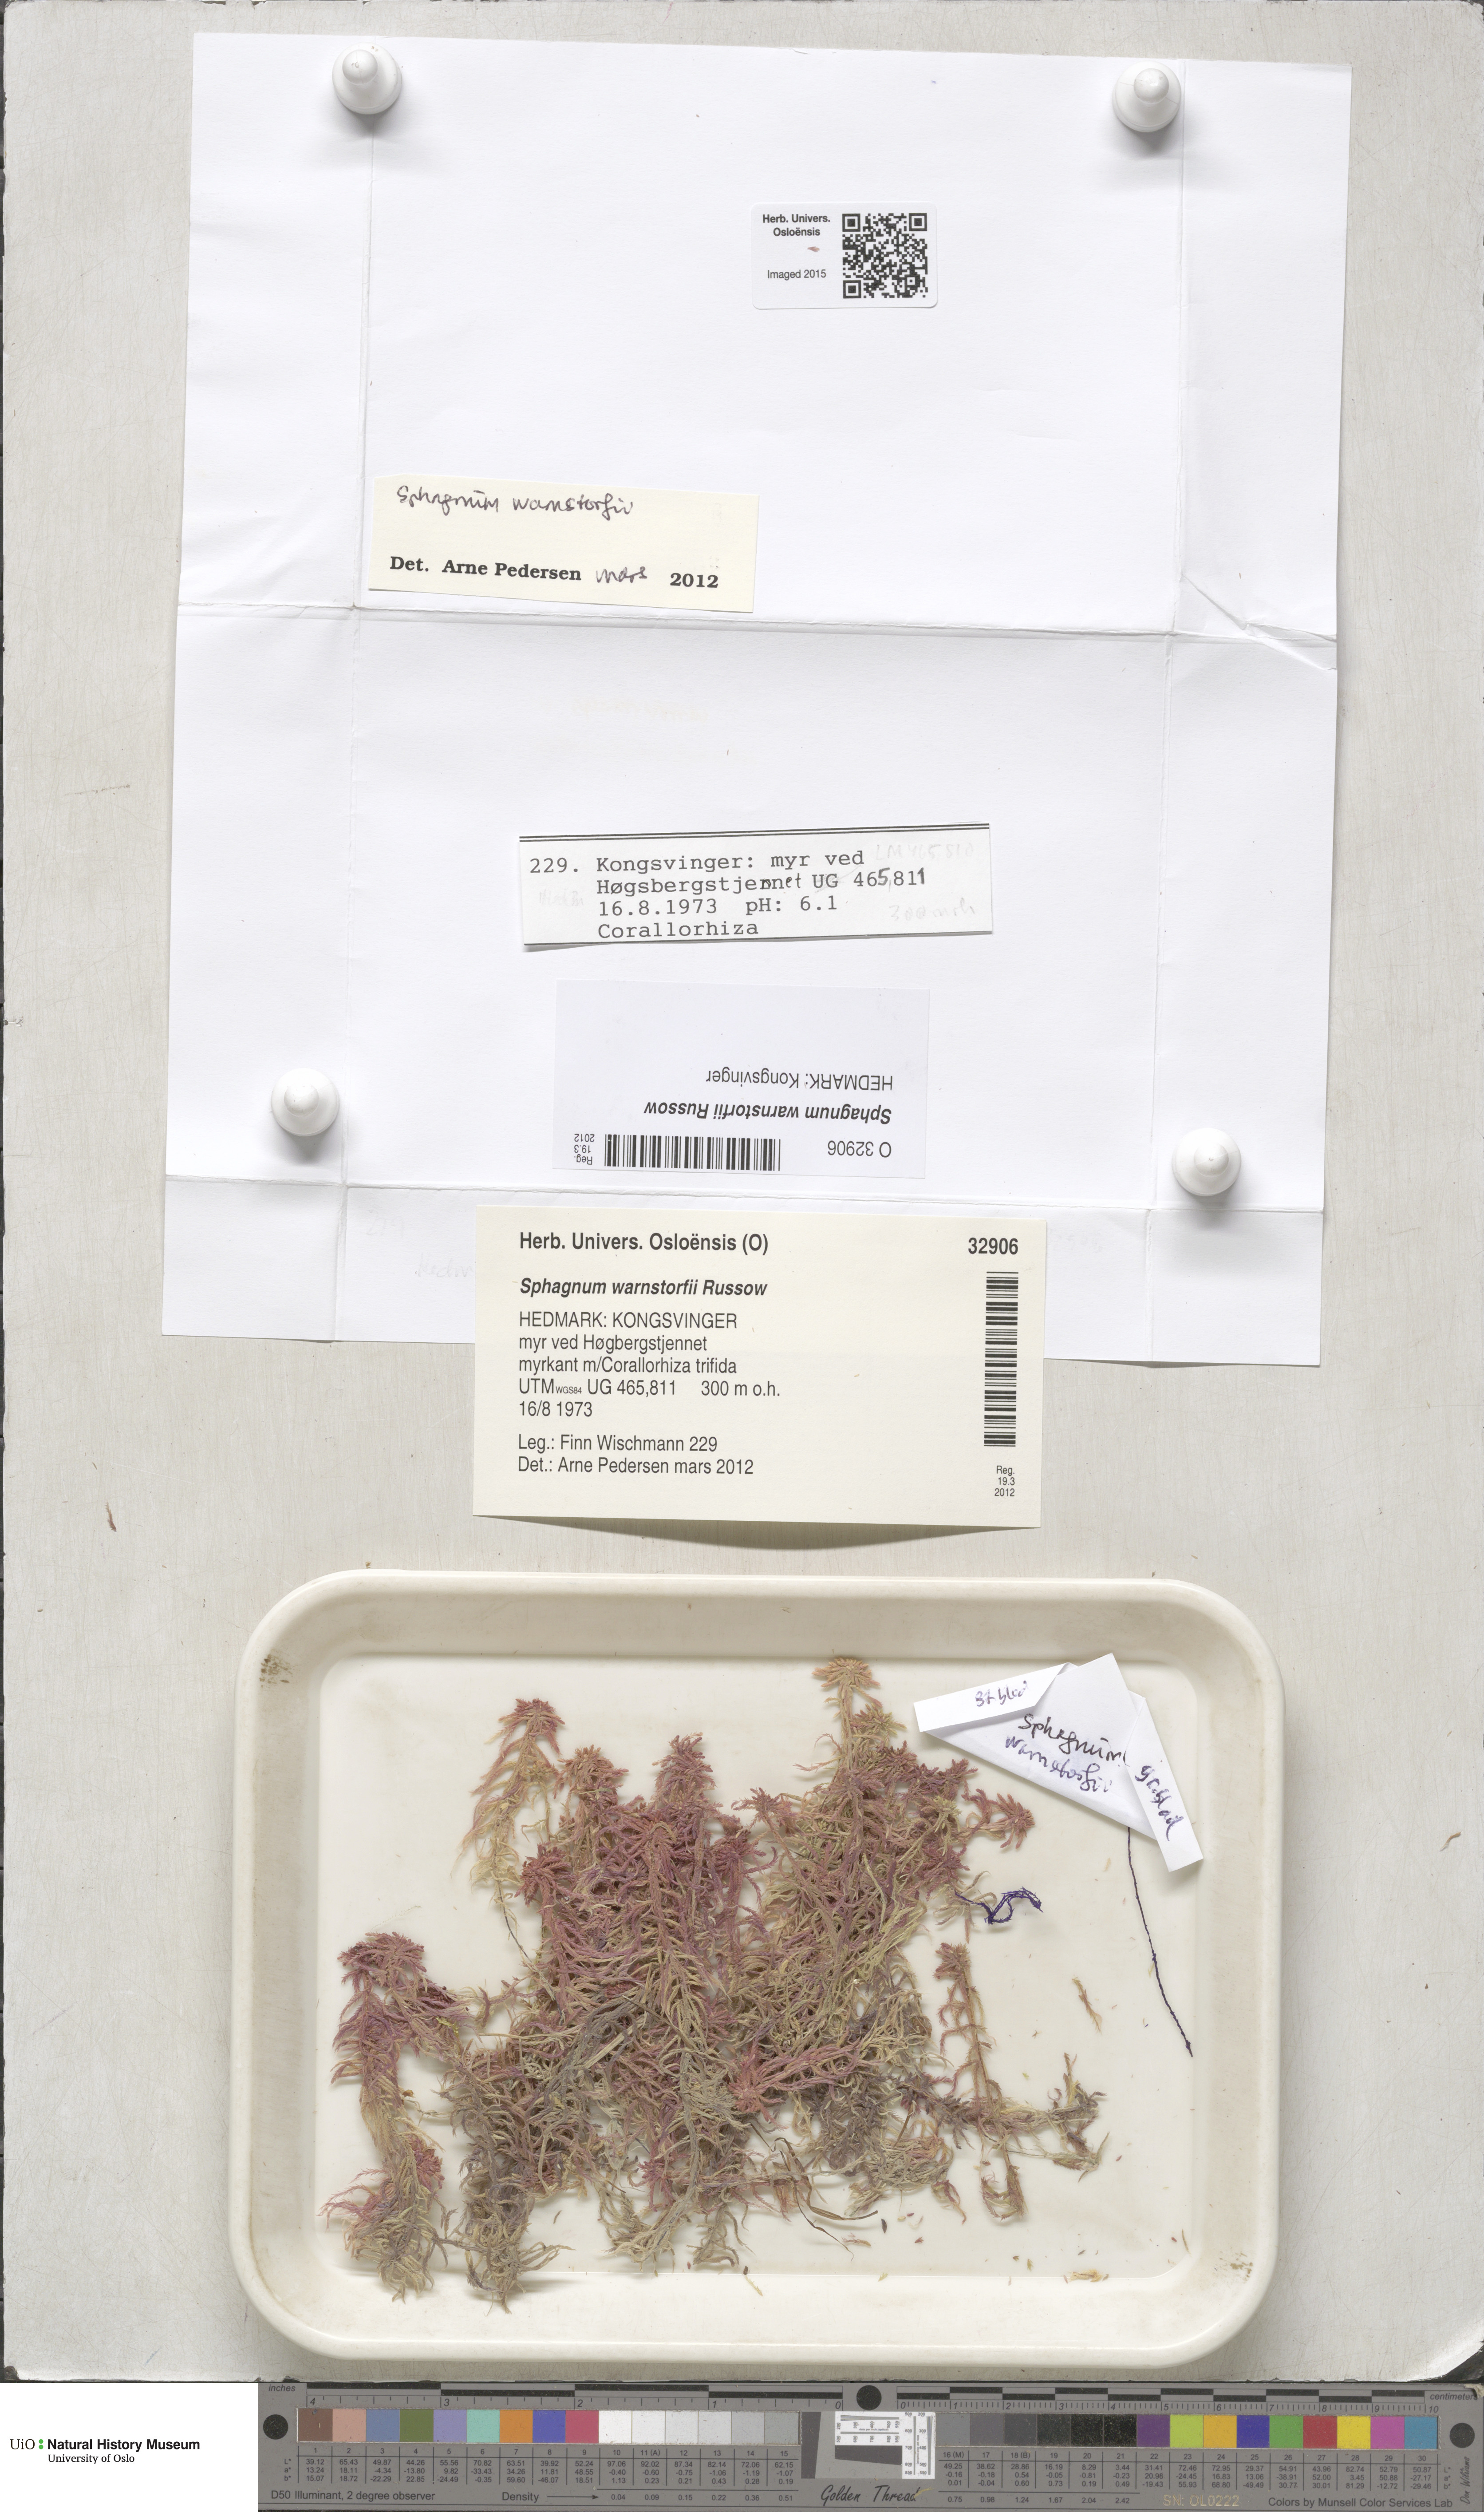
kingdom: Plantae
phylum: Bryophyta
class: Sphagnopsida
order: Sphagnales
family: Sphagnaceae
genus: Sphagnum
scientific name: Sphagnum warnstorfii
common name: Warnstorf's peat moss
